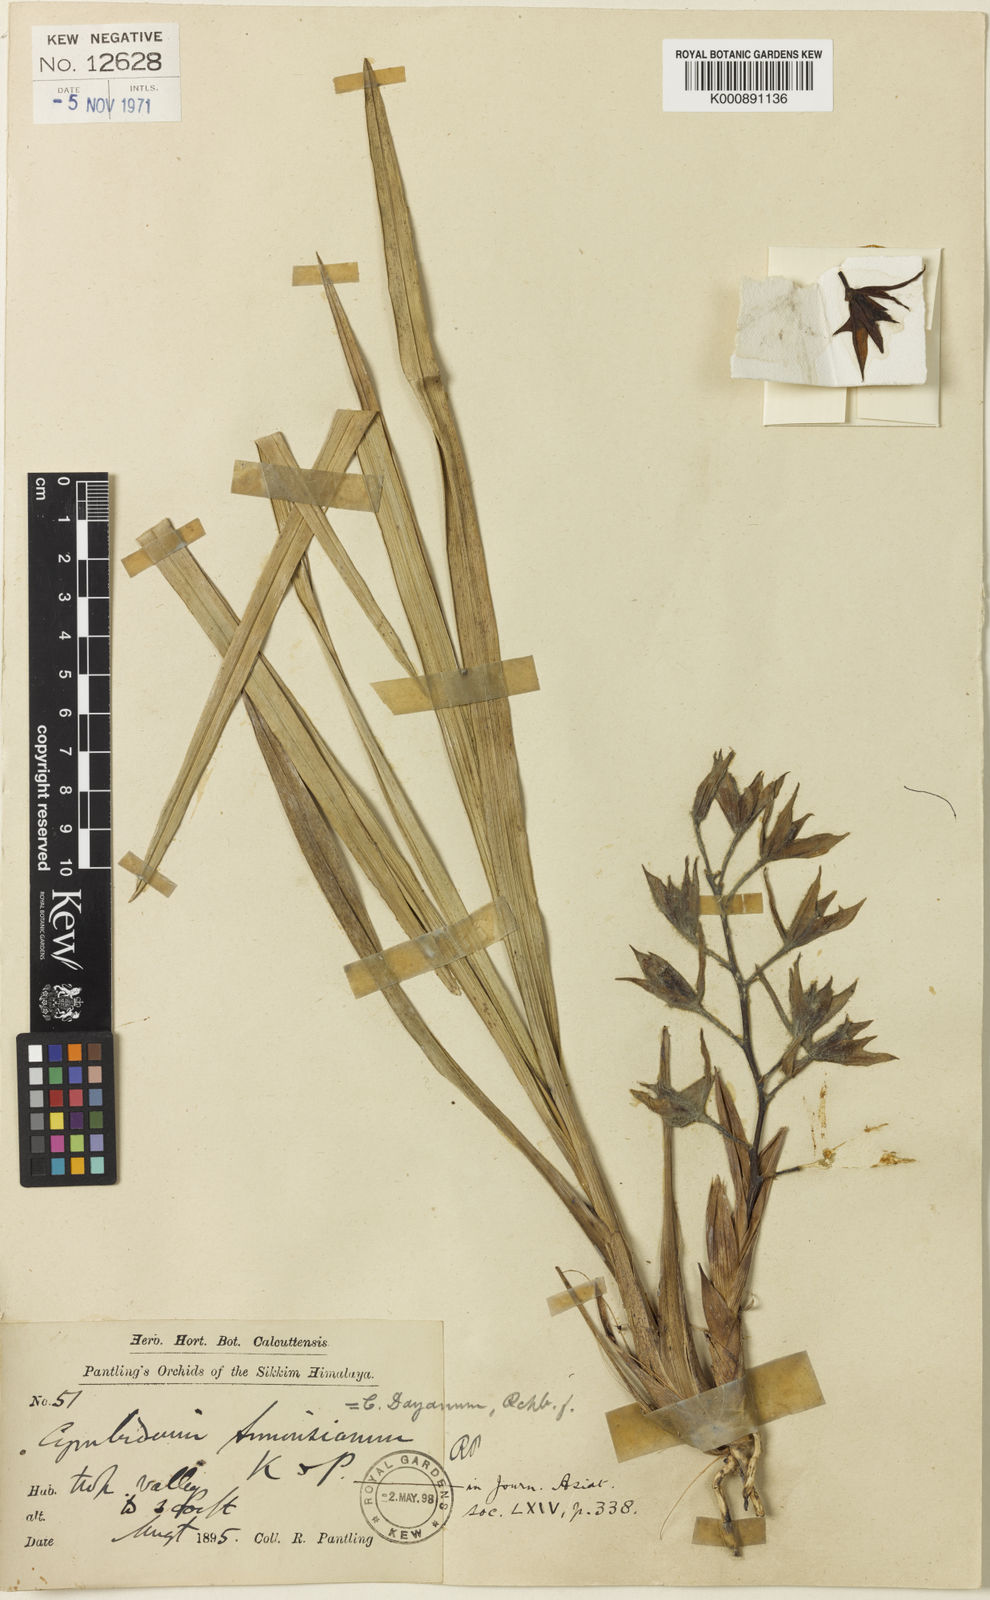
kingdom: Plantae
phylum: Tracheophyta
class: Liliopsida
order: Asparagales
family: Orchidaceae
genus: Cymbidium
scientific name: Cymbidium dayanum
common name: Orchid
